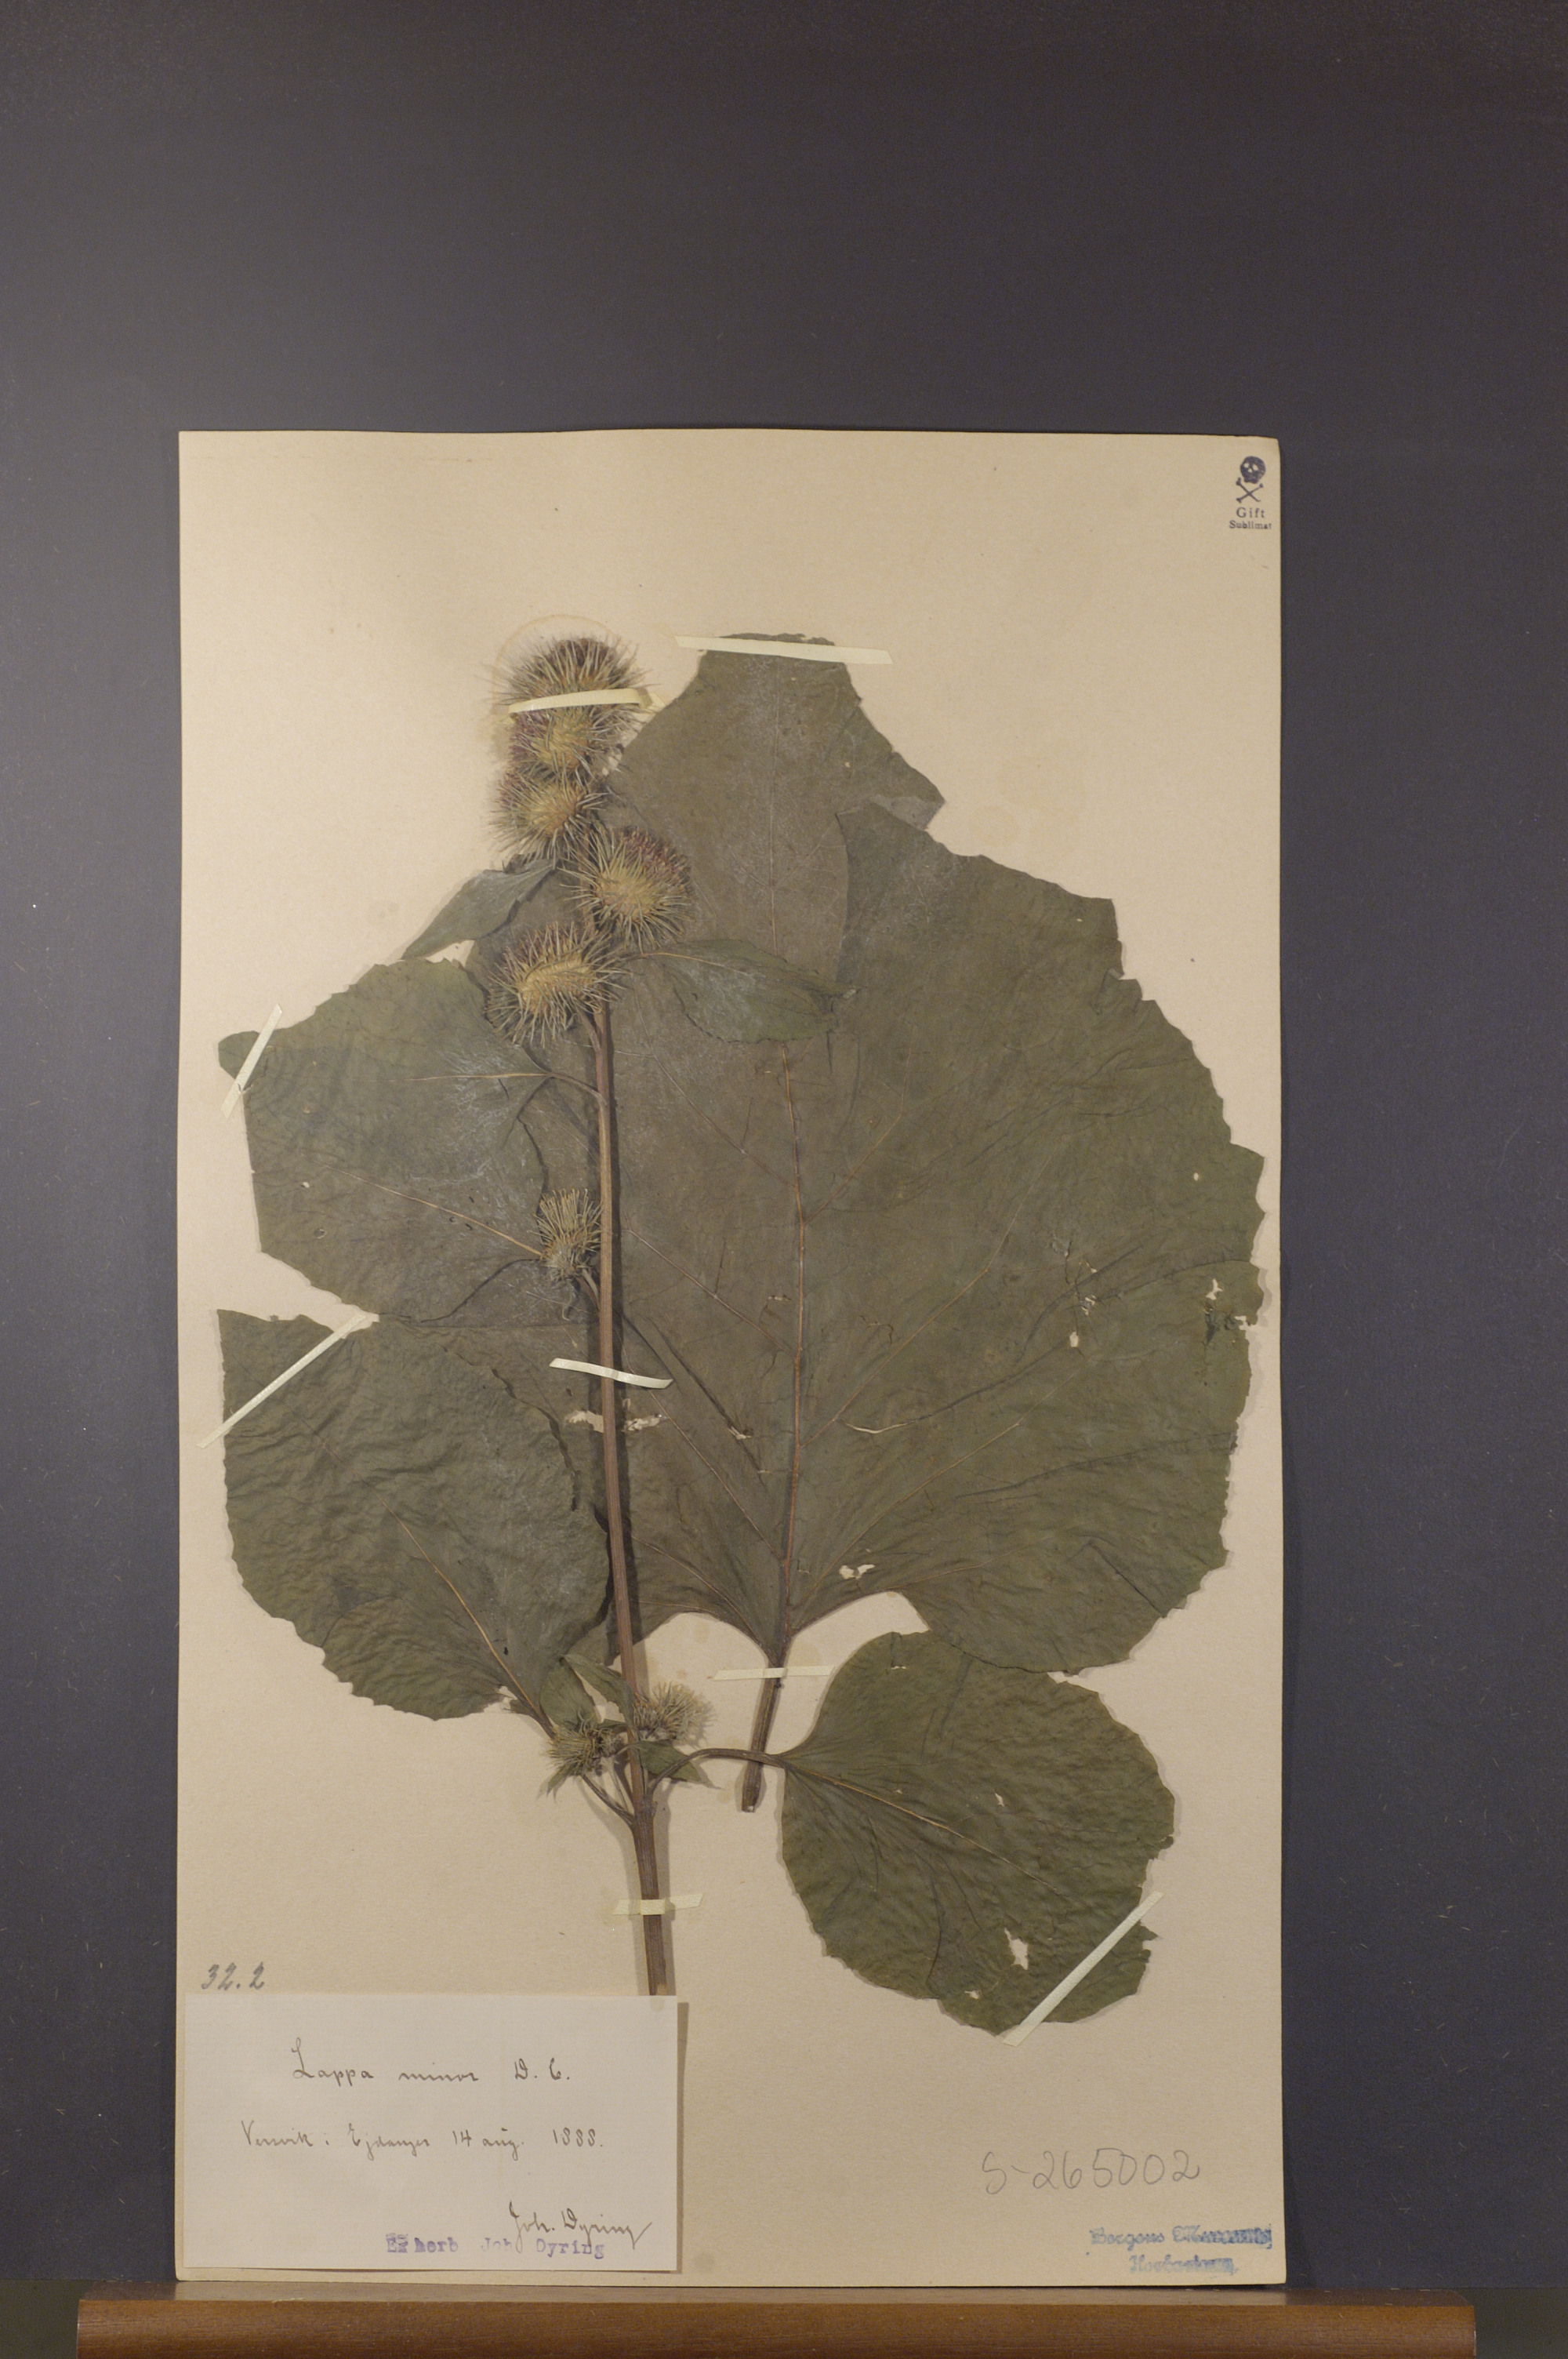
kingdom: Plantae
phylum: Tracheophyta
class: Magnoliopsida
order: Asterales
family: Asteraceae
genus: Arctium
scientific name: Arctium minus
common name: Lesser burdock
